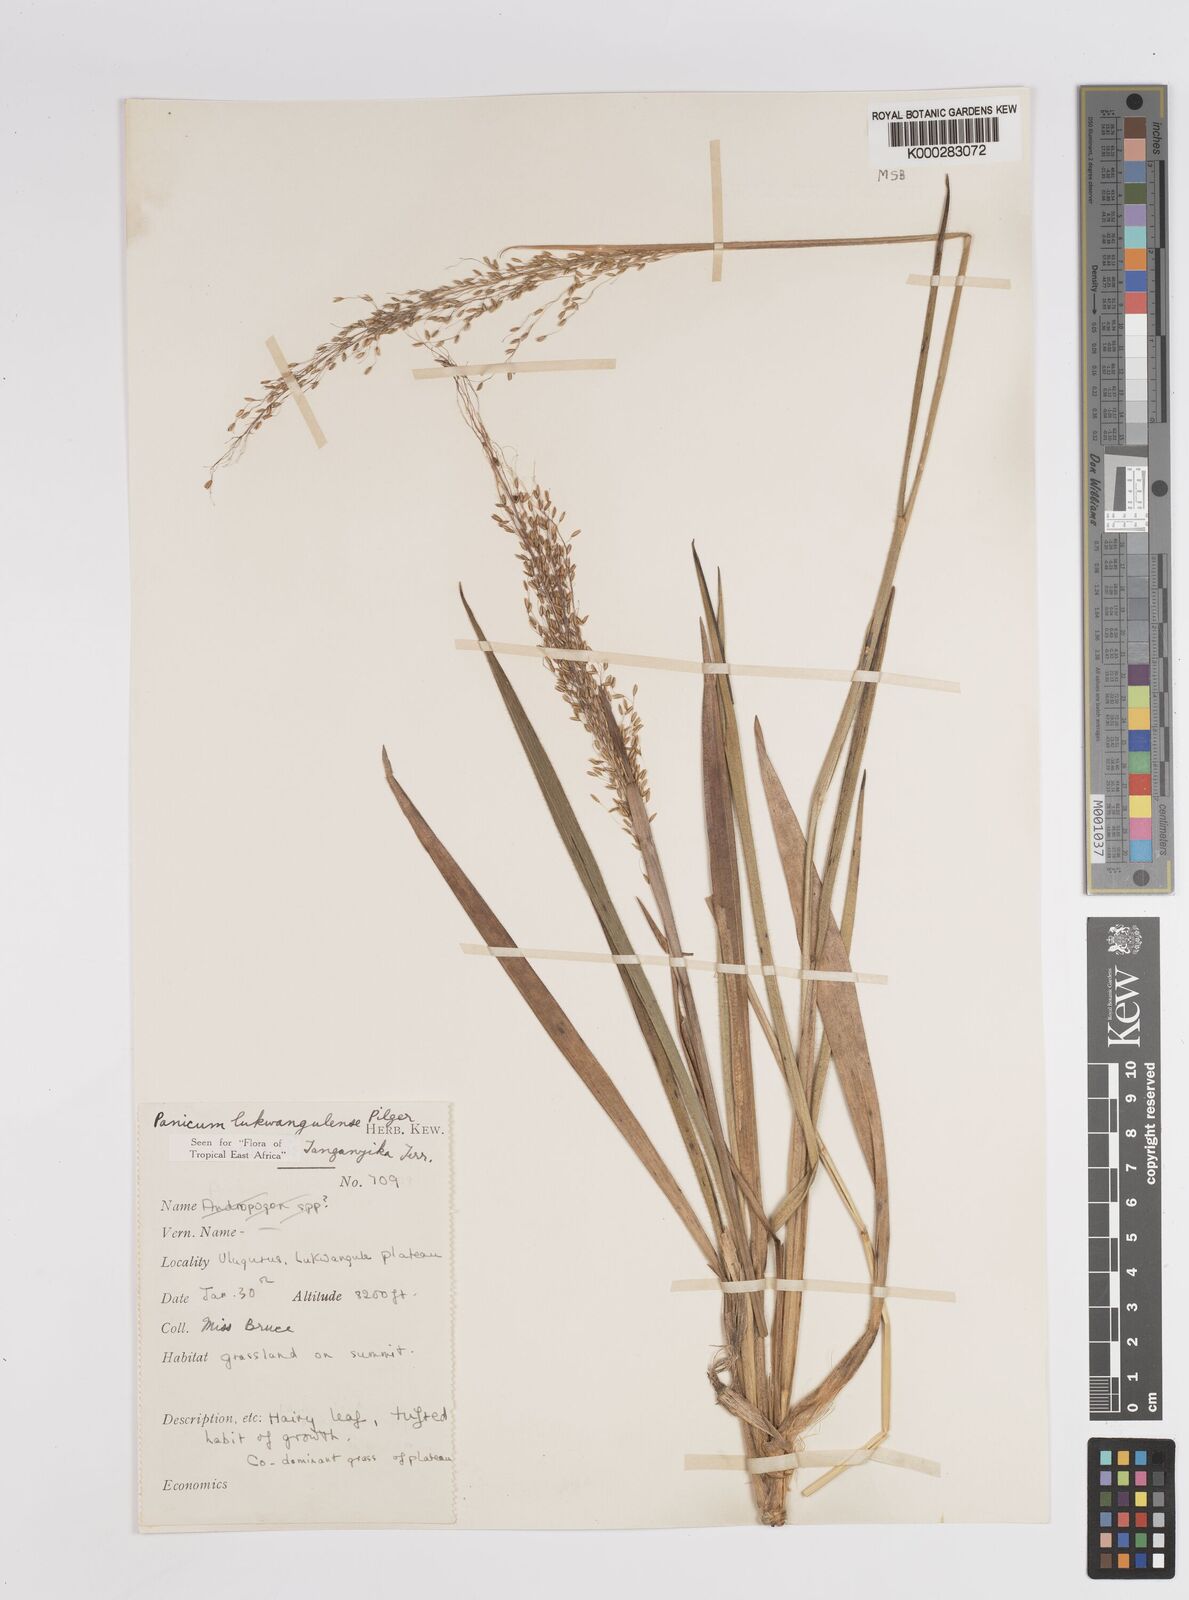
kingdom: Plantae
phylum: Tracheophyta
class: Liliopsida
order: Poales
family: Poaceae
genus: Adenochloa
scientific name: Adenochloa lukwangulense
